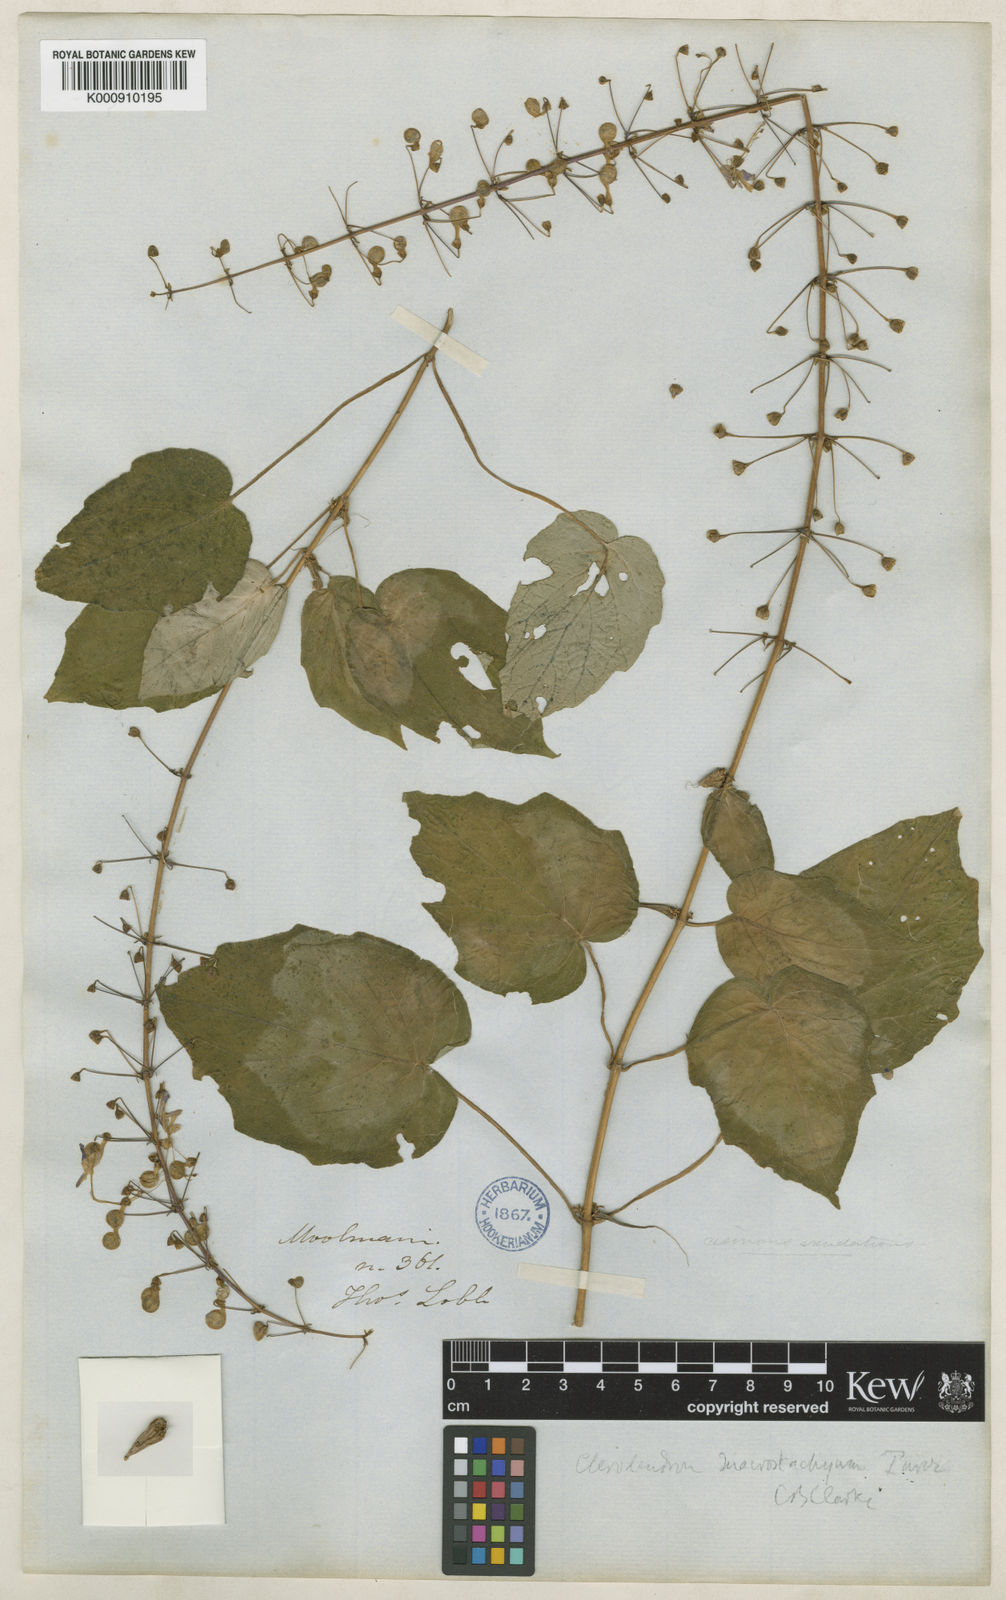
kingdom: Plantae
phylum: Tracheophyta
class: Magnoliopsida
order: Lamiales
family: Lamiaceae
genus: Rotheca
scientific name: Rotheca macrostachya
